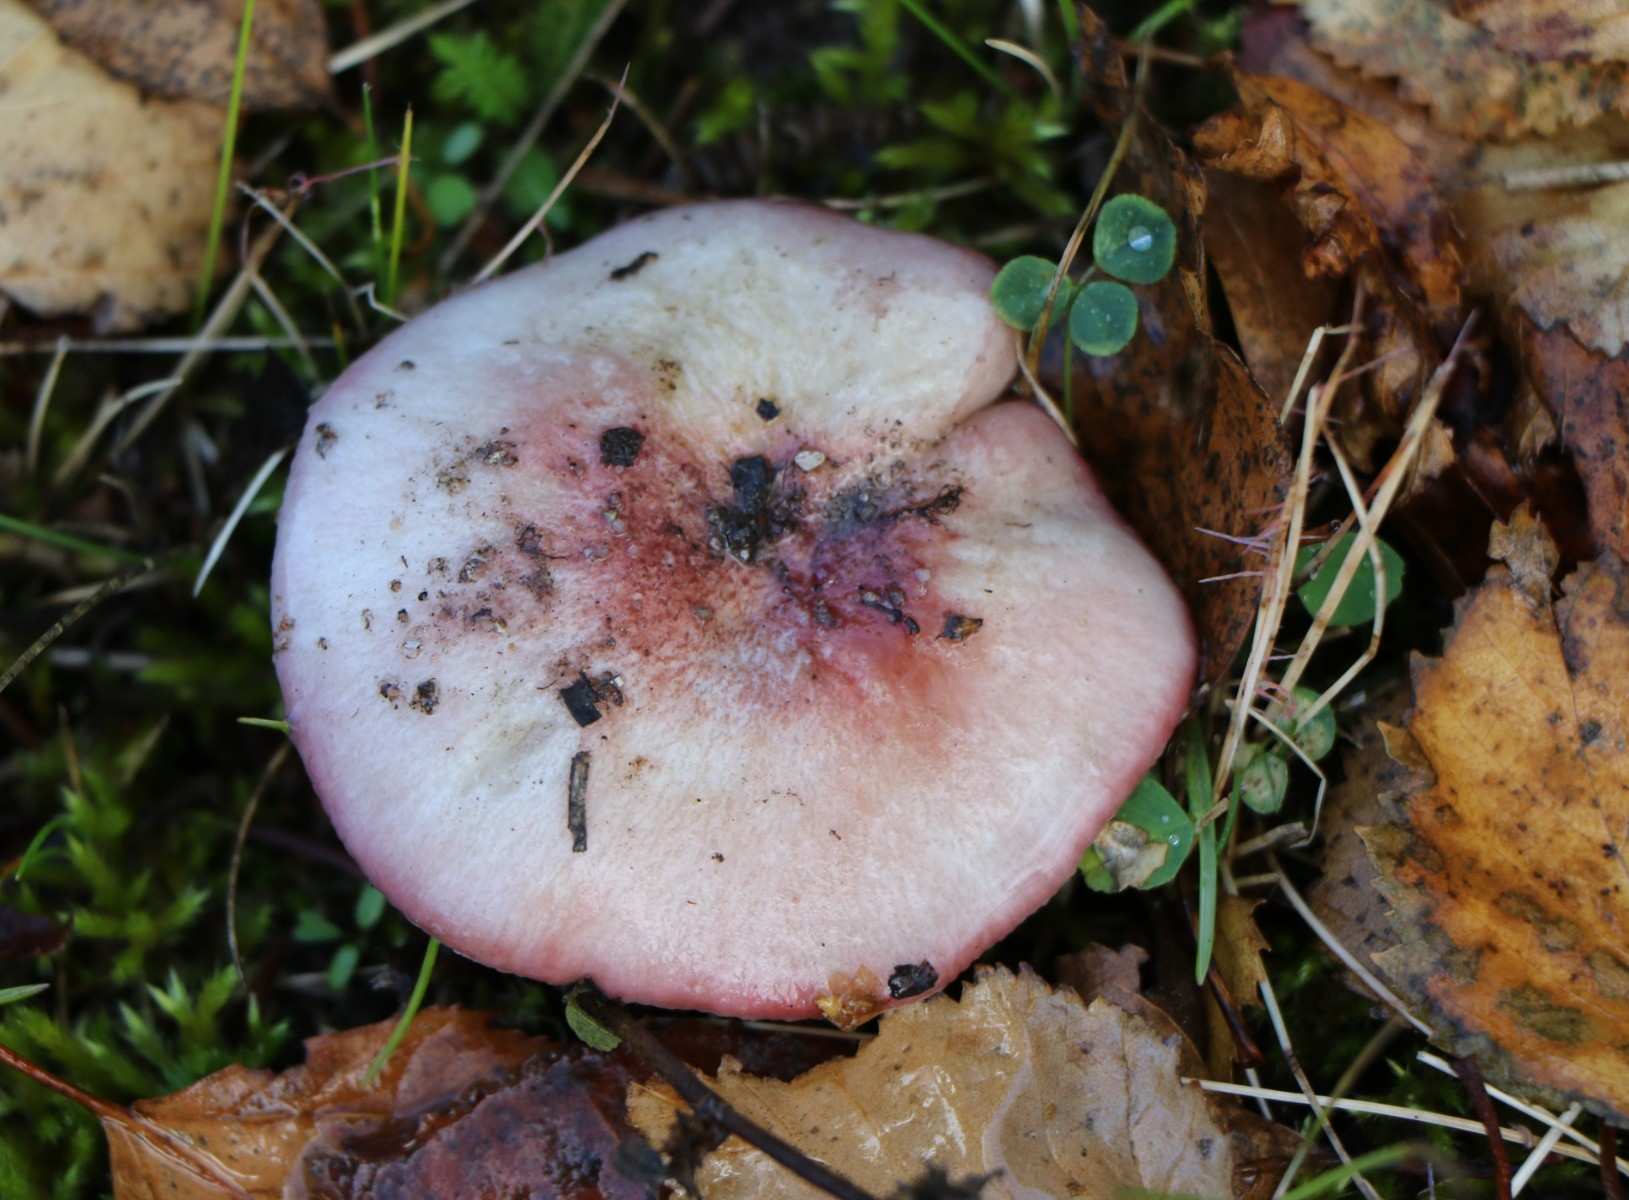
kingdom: Fungi
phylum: Basidiomycota
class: Agaricomycetes
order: Russulales
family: Russulaceae
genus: Russula
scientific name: Russula
